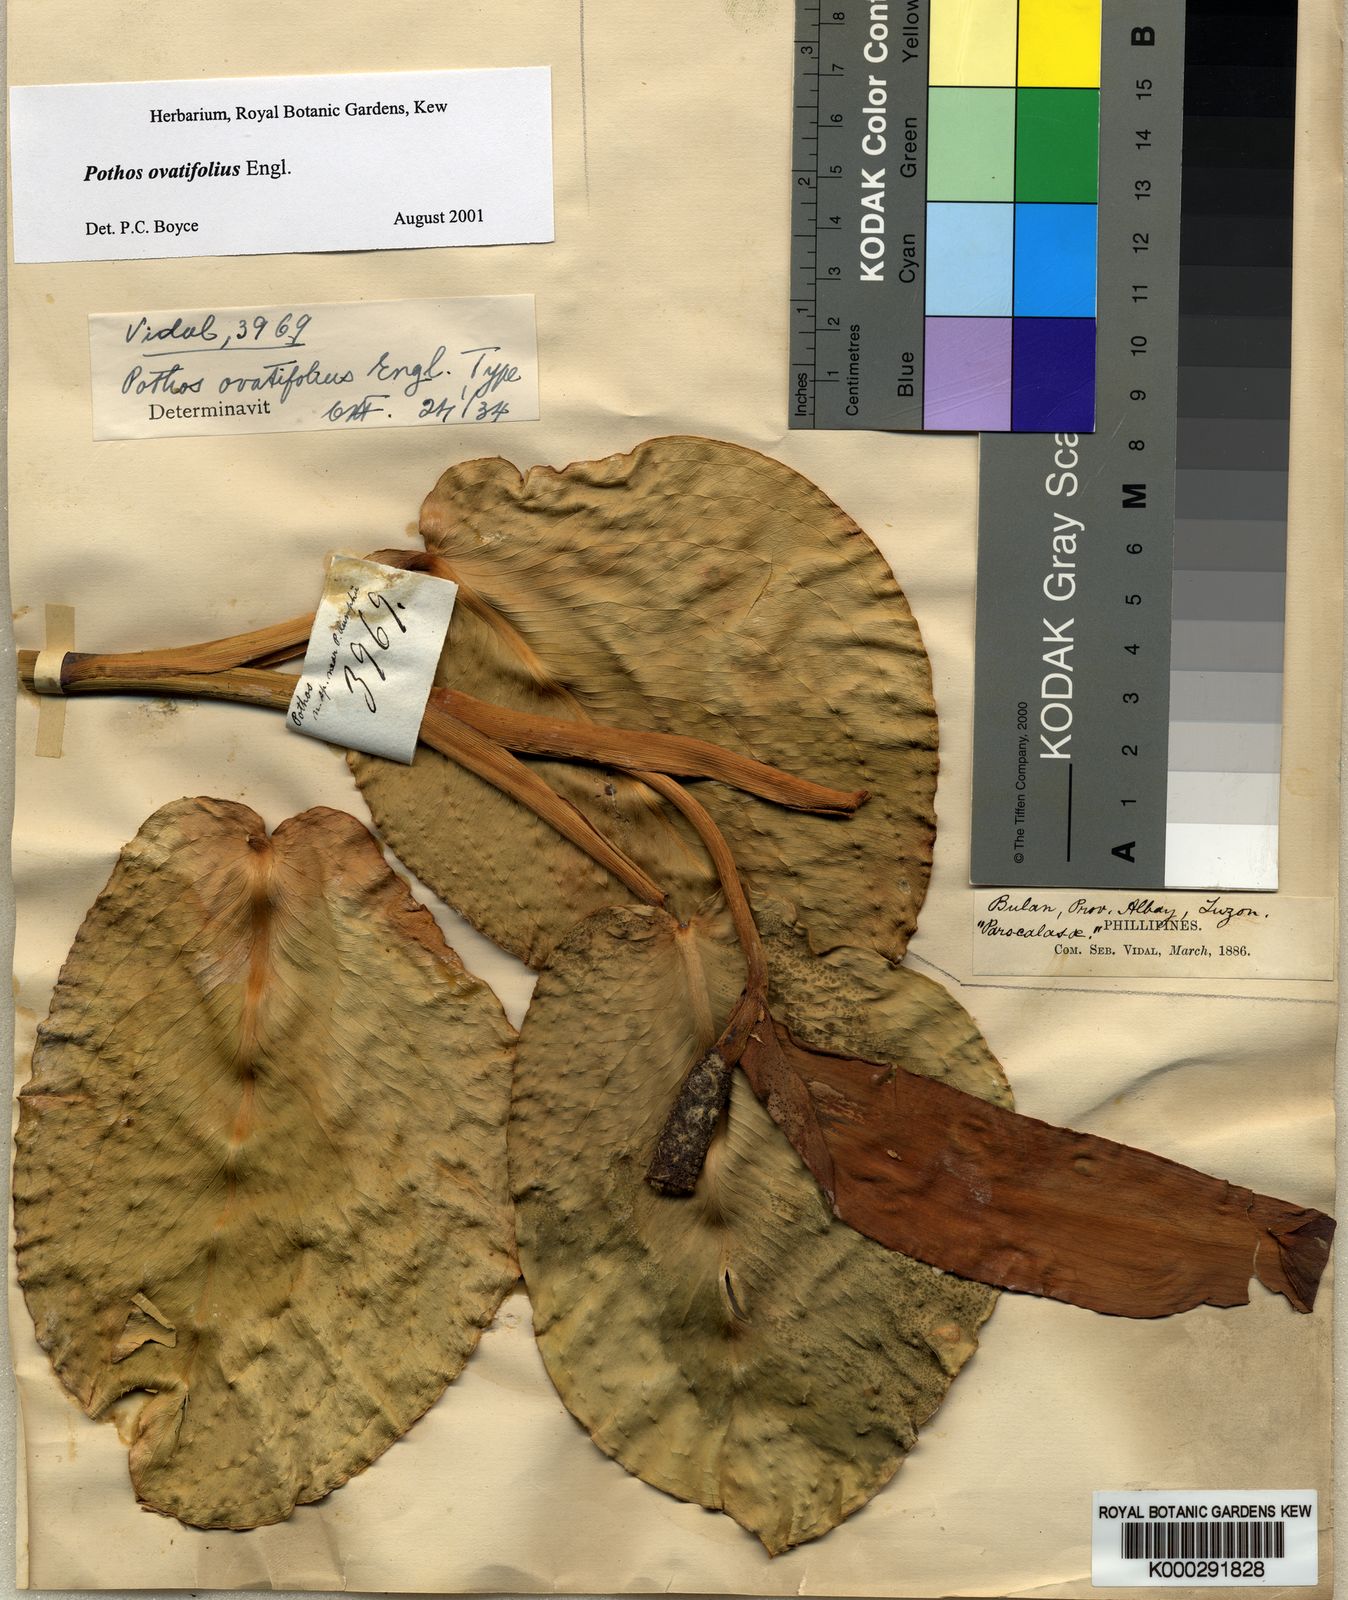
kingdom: Plantae
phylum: Tracheophyta
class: Liliopsida
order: Alismatales
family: Araceae
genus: Pothos
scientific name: Pothos ovatifolius
